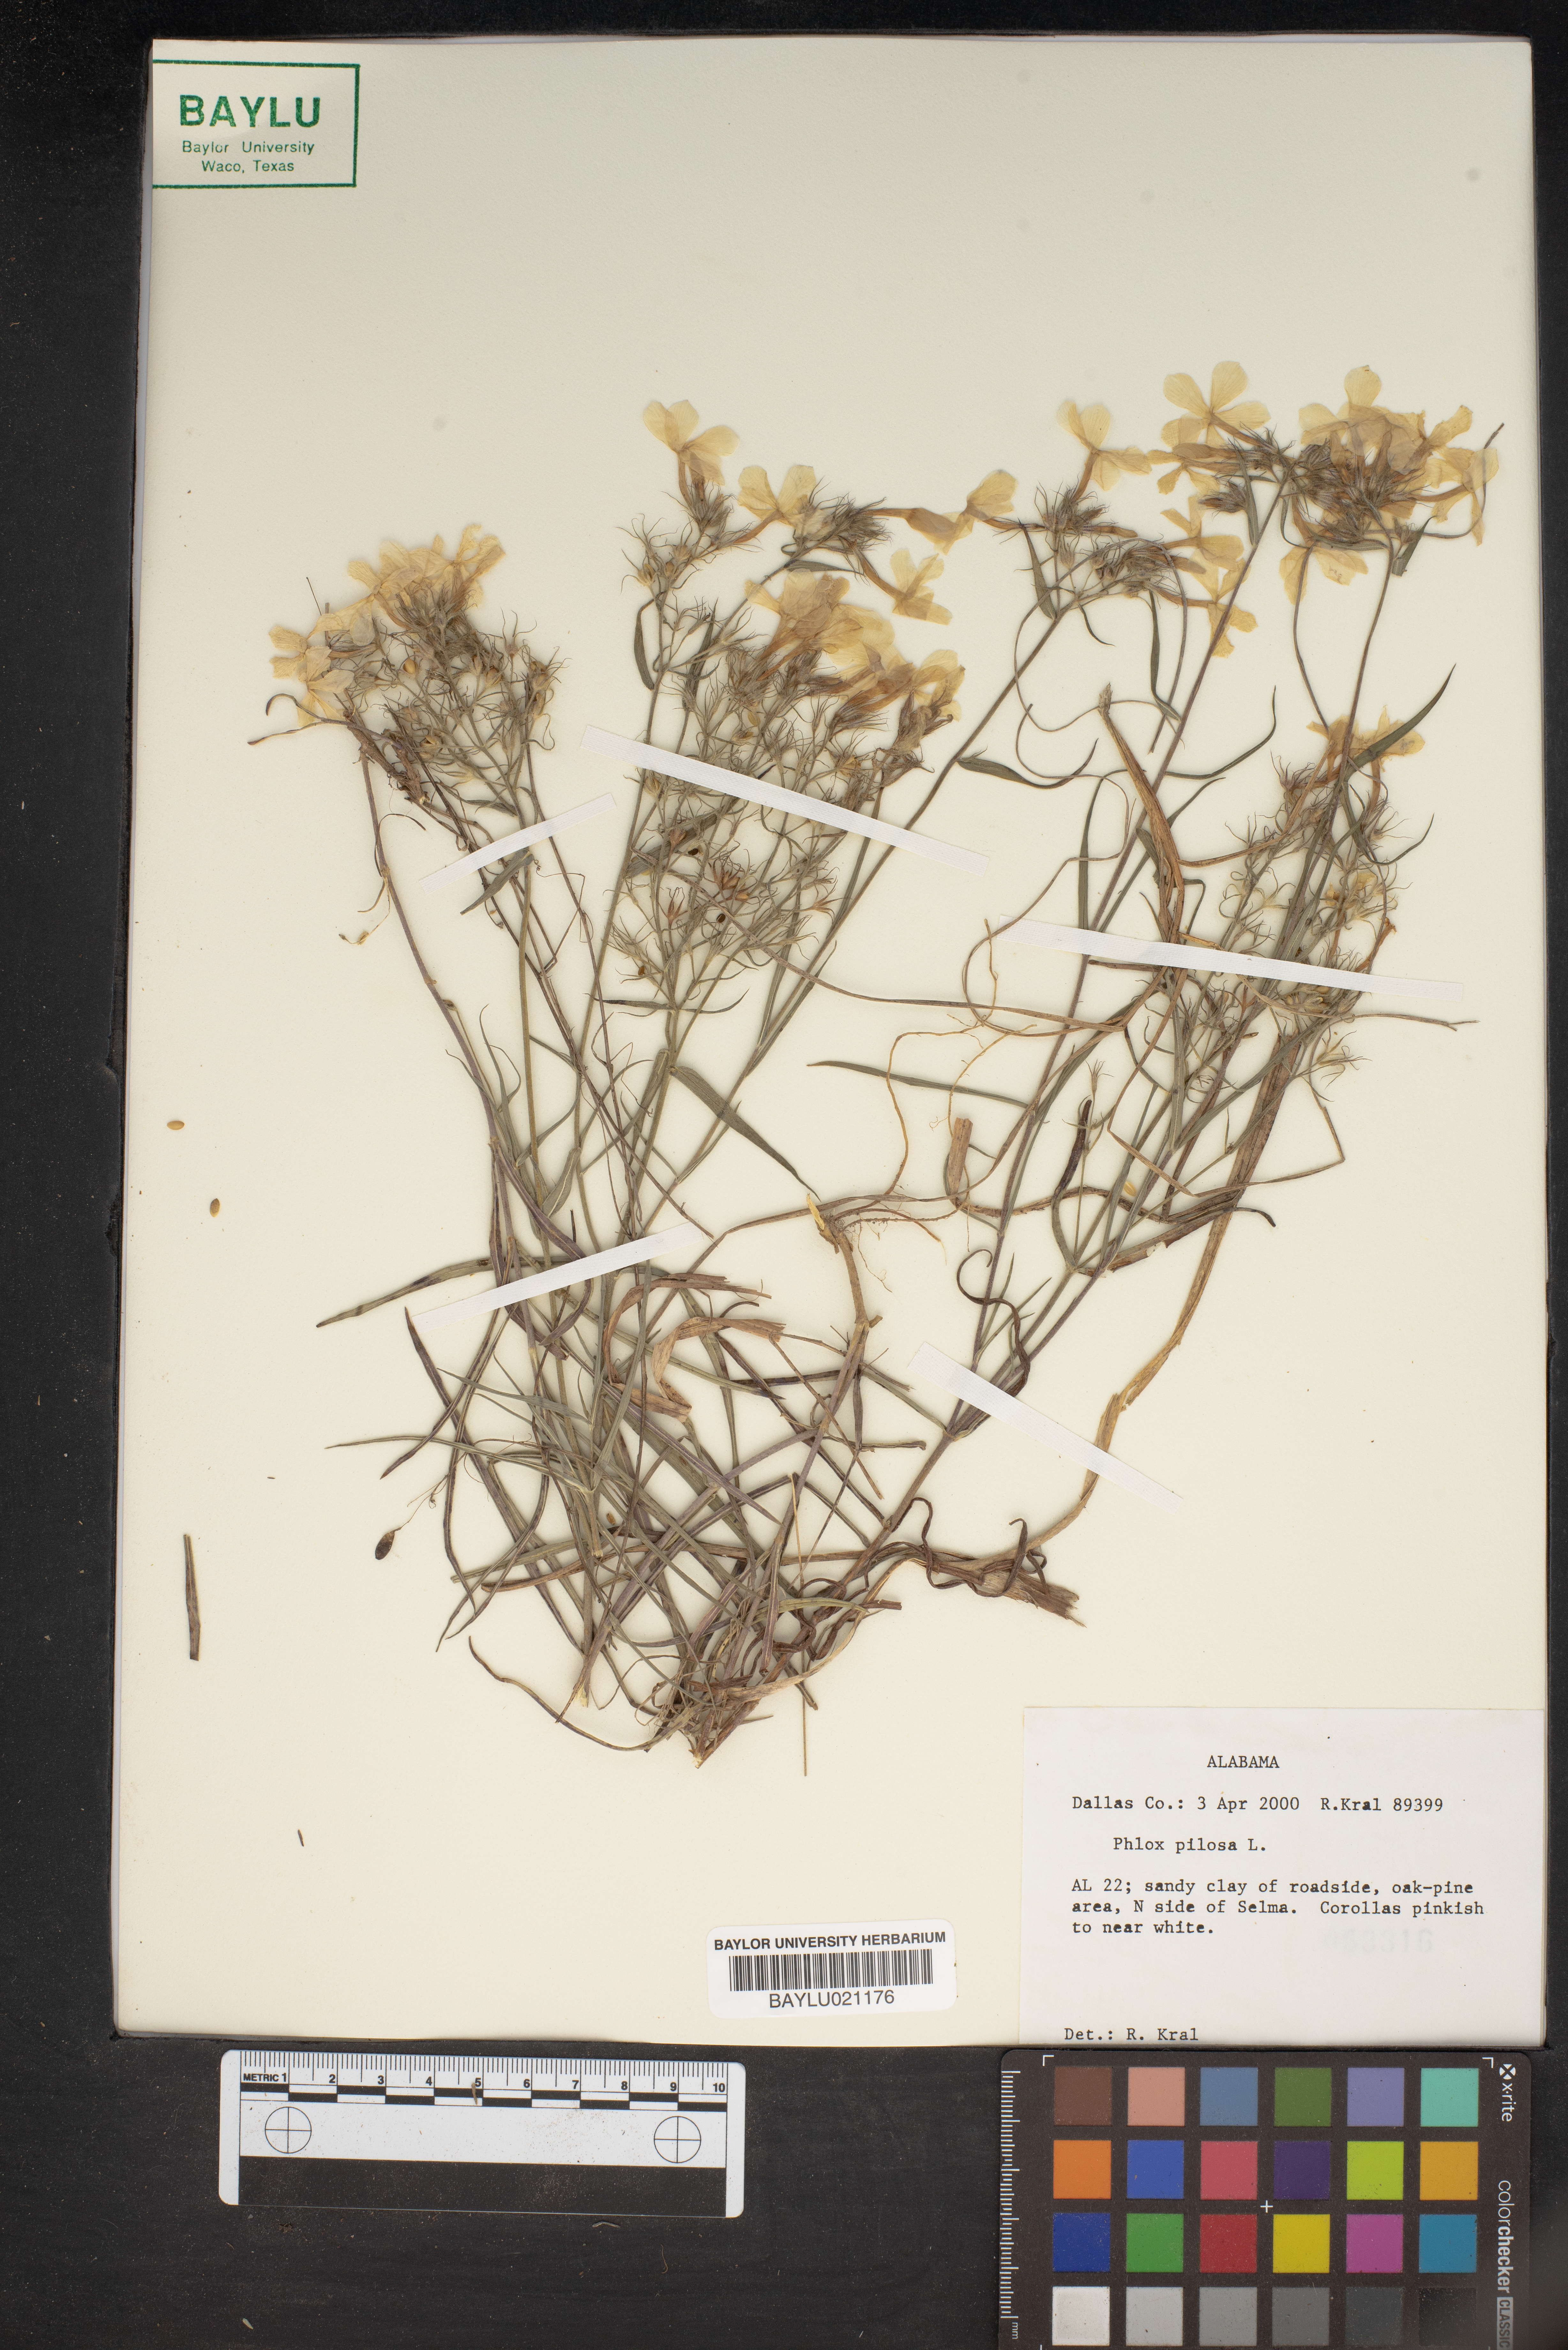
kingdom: Plantae
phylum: Tracheophyta
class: Magnoliopsida
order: Ericales
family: Polemoniaceae
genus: Phlox
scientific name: Phlox pilosa
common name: Prairie phlox
